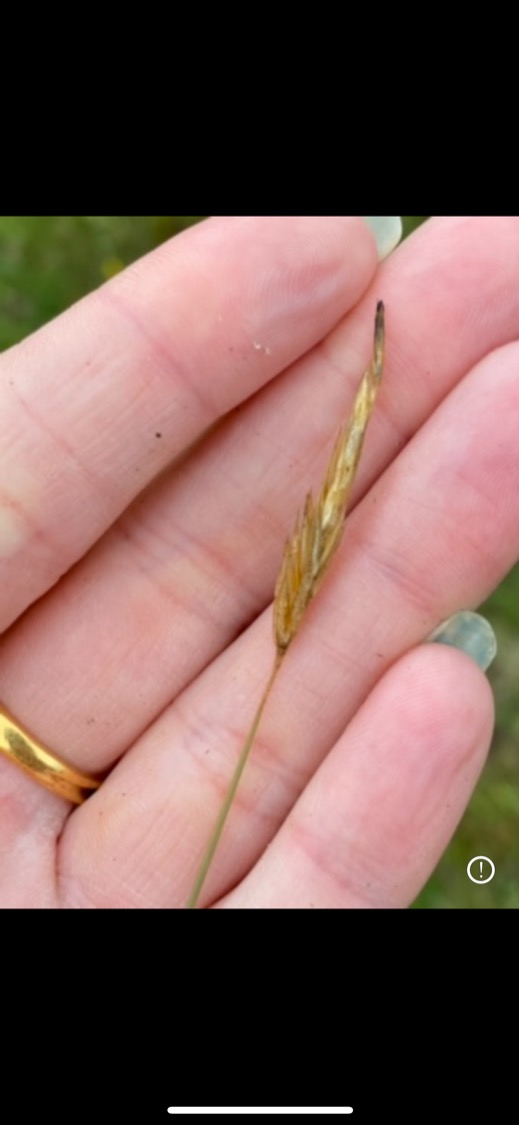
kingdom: Plantae
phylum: Tracheophyta
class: Liliopsida
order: Poales
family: Poaceae
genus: Anthoxanthum
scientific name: Anthoxanthum odoratum
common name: Vellugtende gulaks
